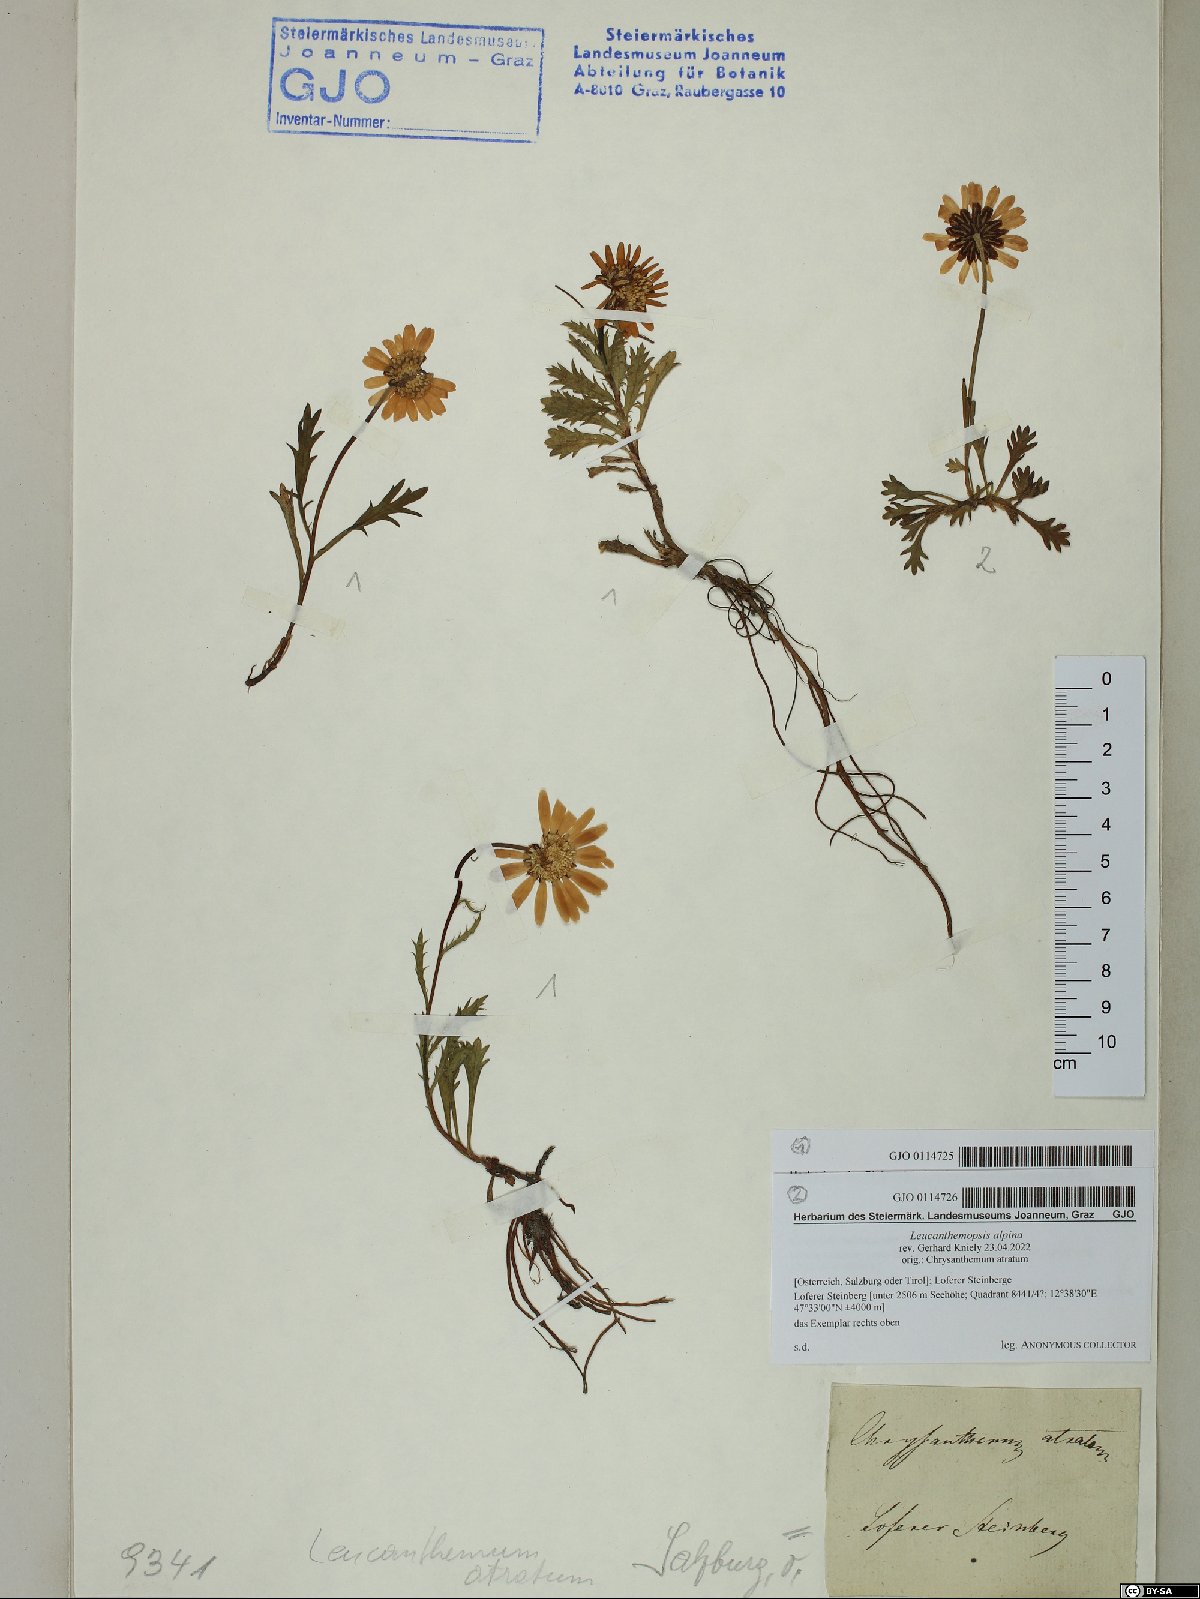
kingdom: Plantae
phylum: Tracheophyta
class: Magnoliopsida
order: Asterales
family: Asteraceae
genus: Leucanthemopsis
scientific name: Leucanthemopsis alpina
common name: Alpine moon daisy
